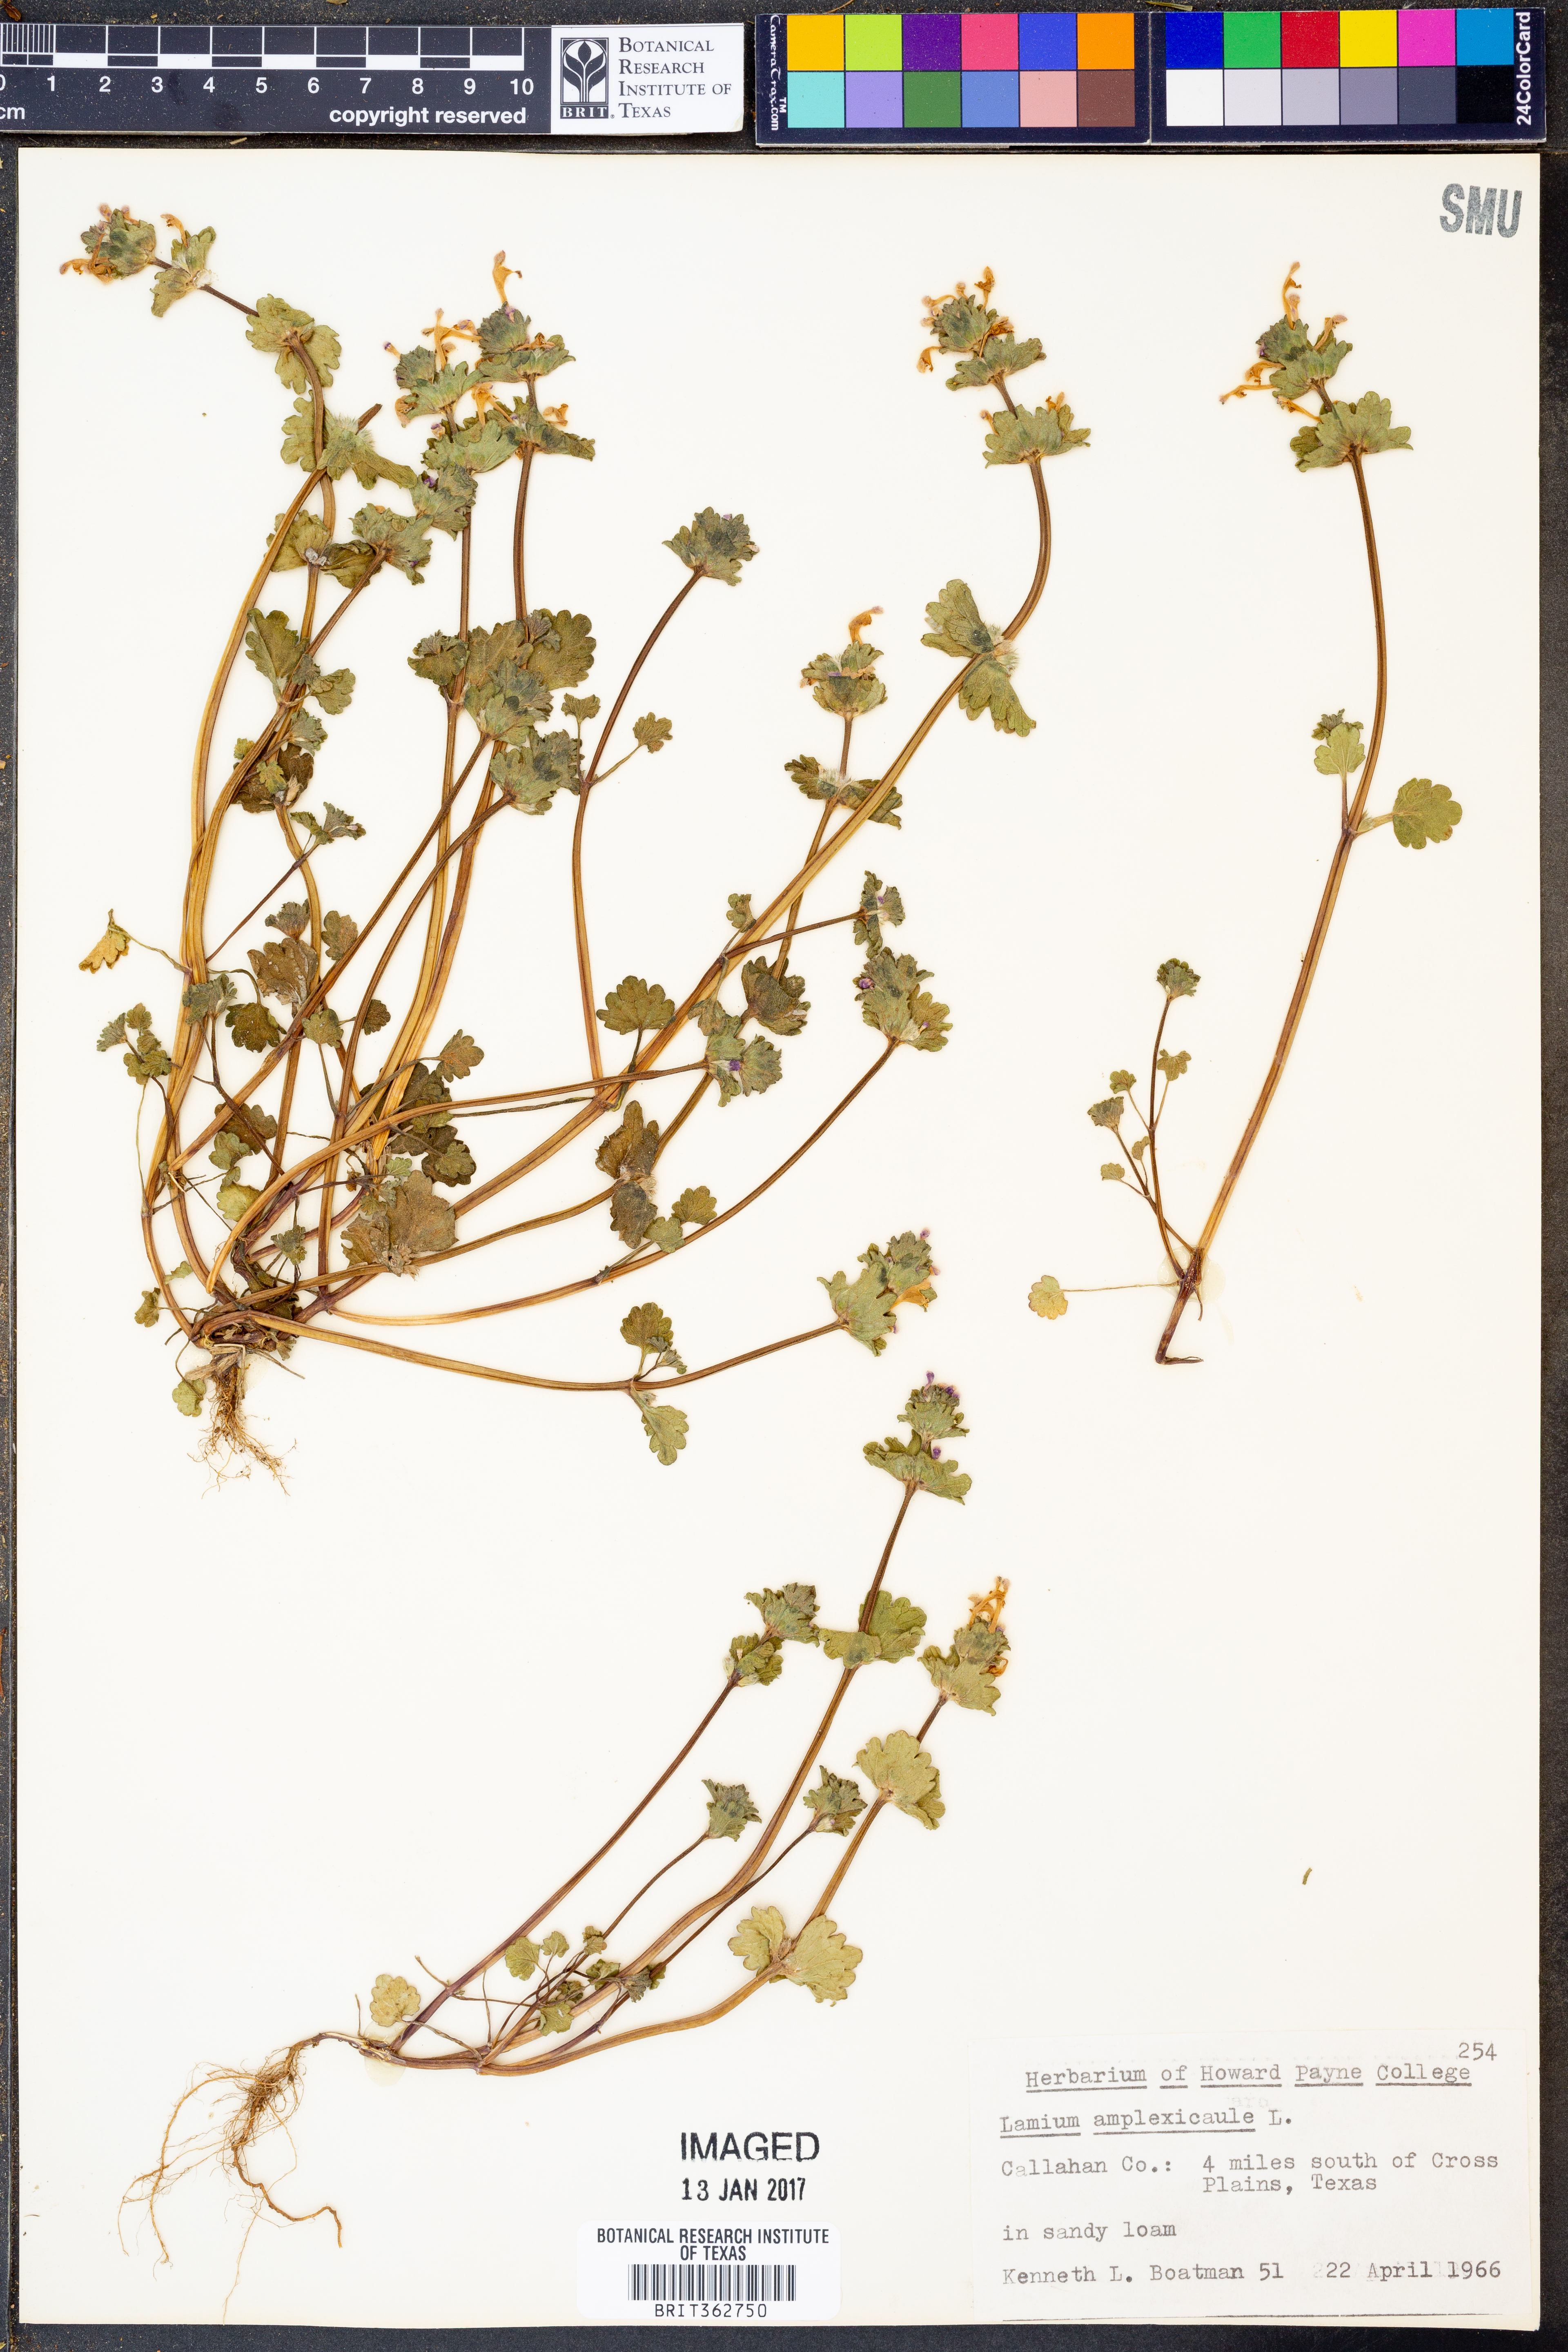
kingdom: Plantae
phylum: Tracheophyta
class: Magnoliopsida
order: Lamiales
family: Lamiaceae
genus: Lamium
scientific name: Lamium amplexicaule
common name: Henbit dead-nettle
